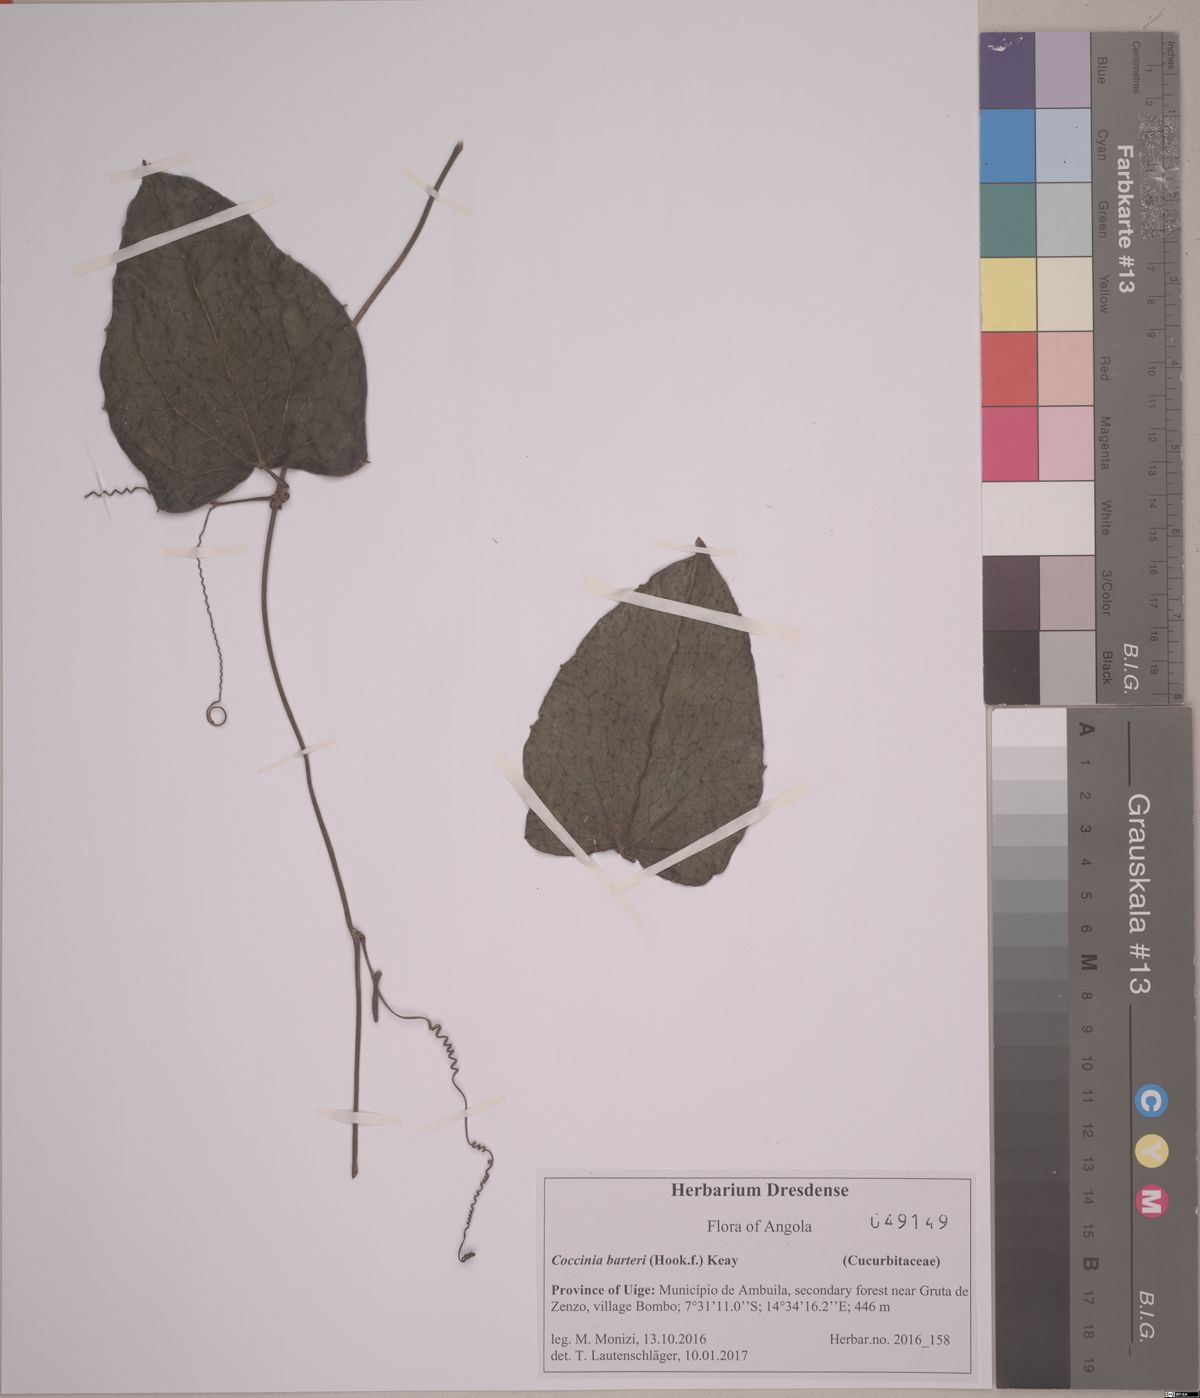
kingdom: Plantae
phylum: Tracheophyta
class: Magnoliopsida
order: Cucurbitales
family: Cucurbitaceae
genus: Coccinia
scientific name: Coccinia barteri
